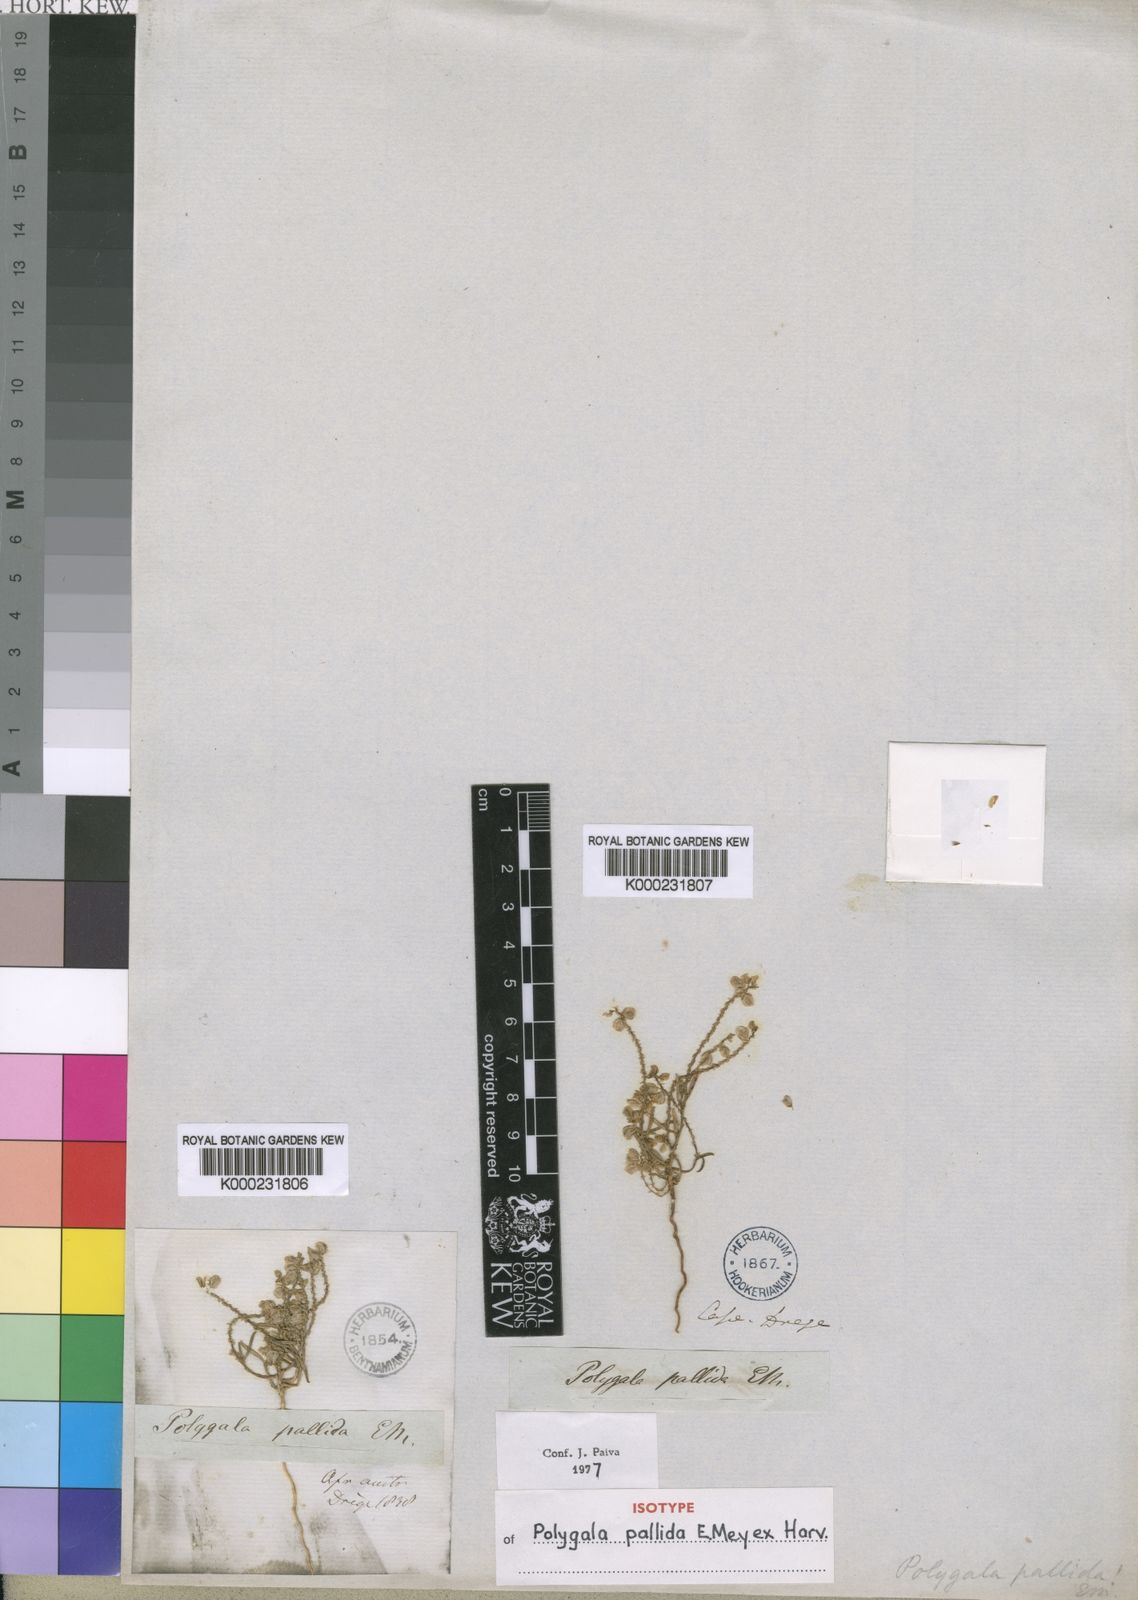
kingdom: Plantae
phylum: Tracheophyta
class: Magnoliopsida
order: Fabales
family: Polygalaceae
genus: Polygala
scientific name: Polygala
